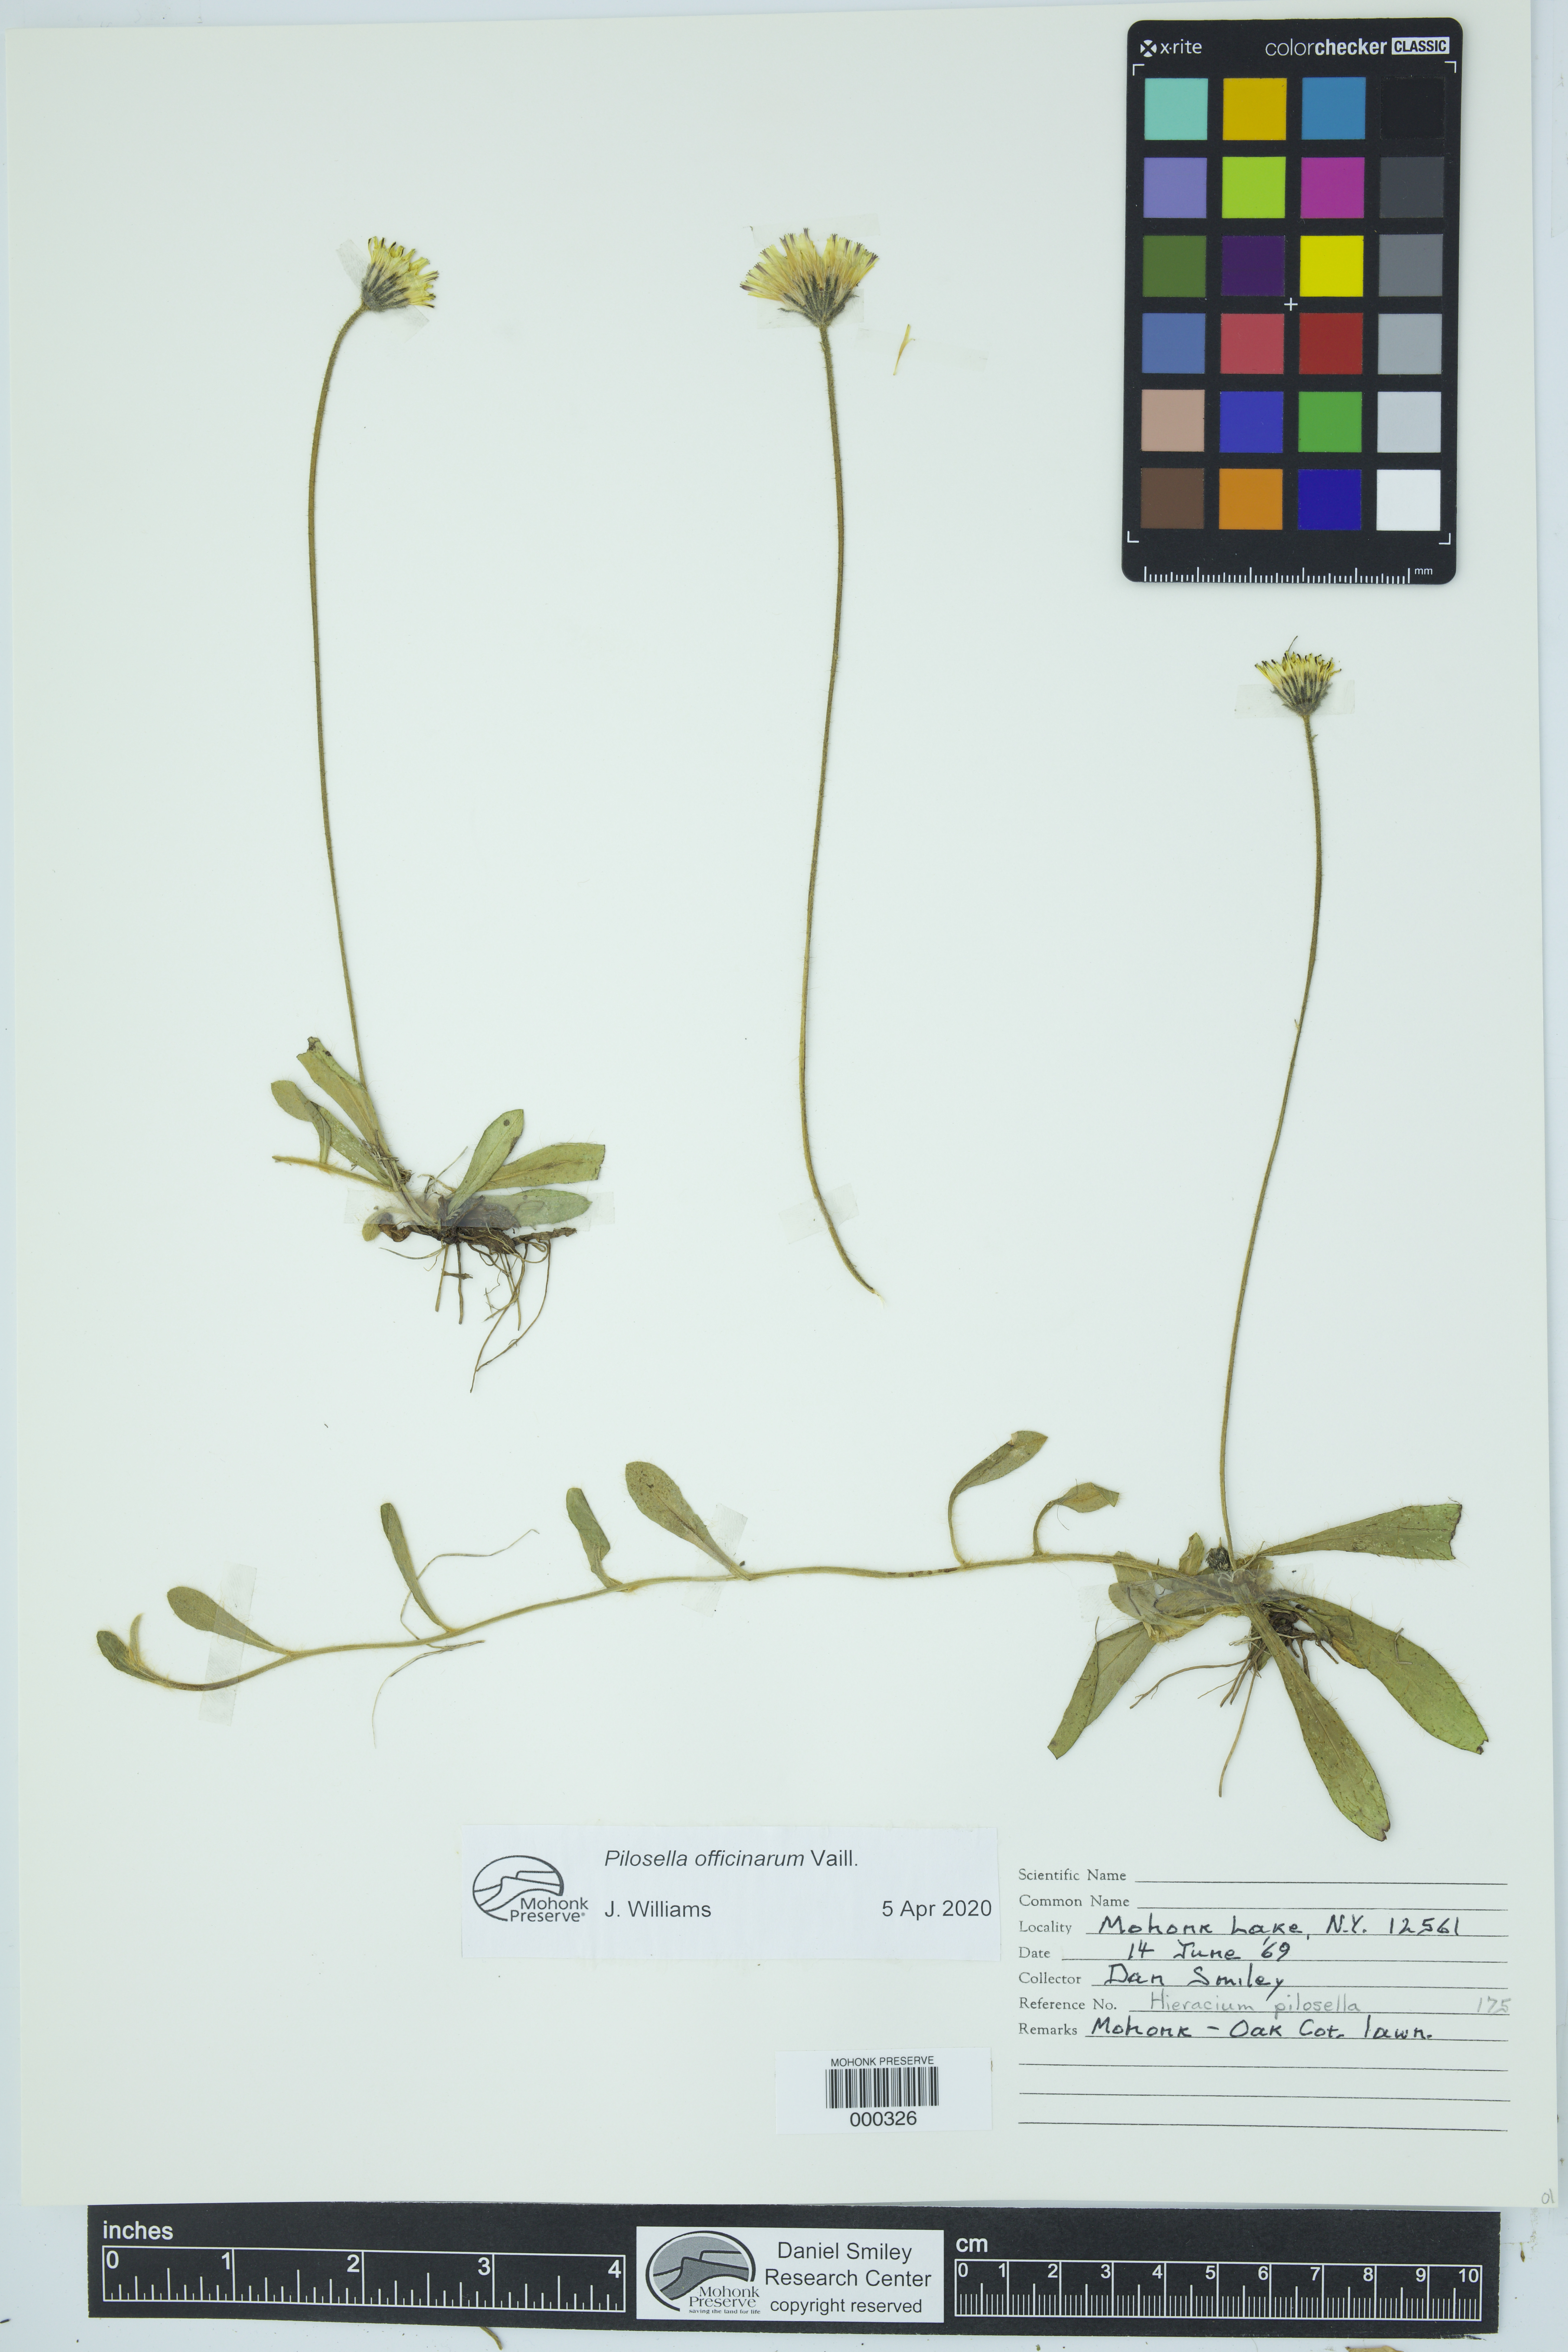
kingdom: Plantae
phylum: Tracheophyta
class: Magnoliopsida
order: Asterales
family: Asteraceae
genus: Pilosella
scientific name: Pilosella officinarum
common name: Mouse-ear hawkweed
